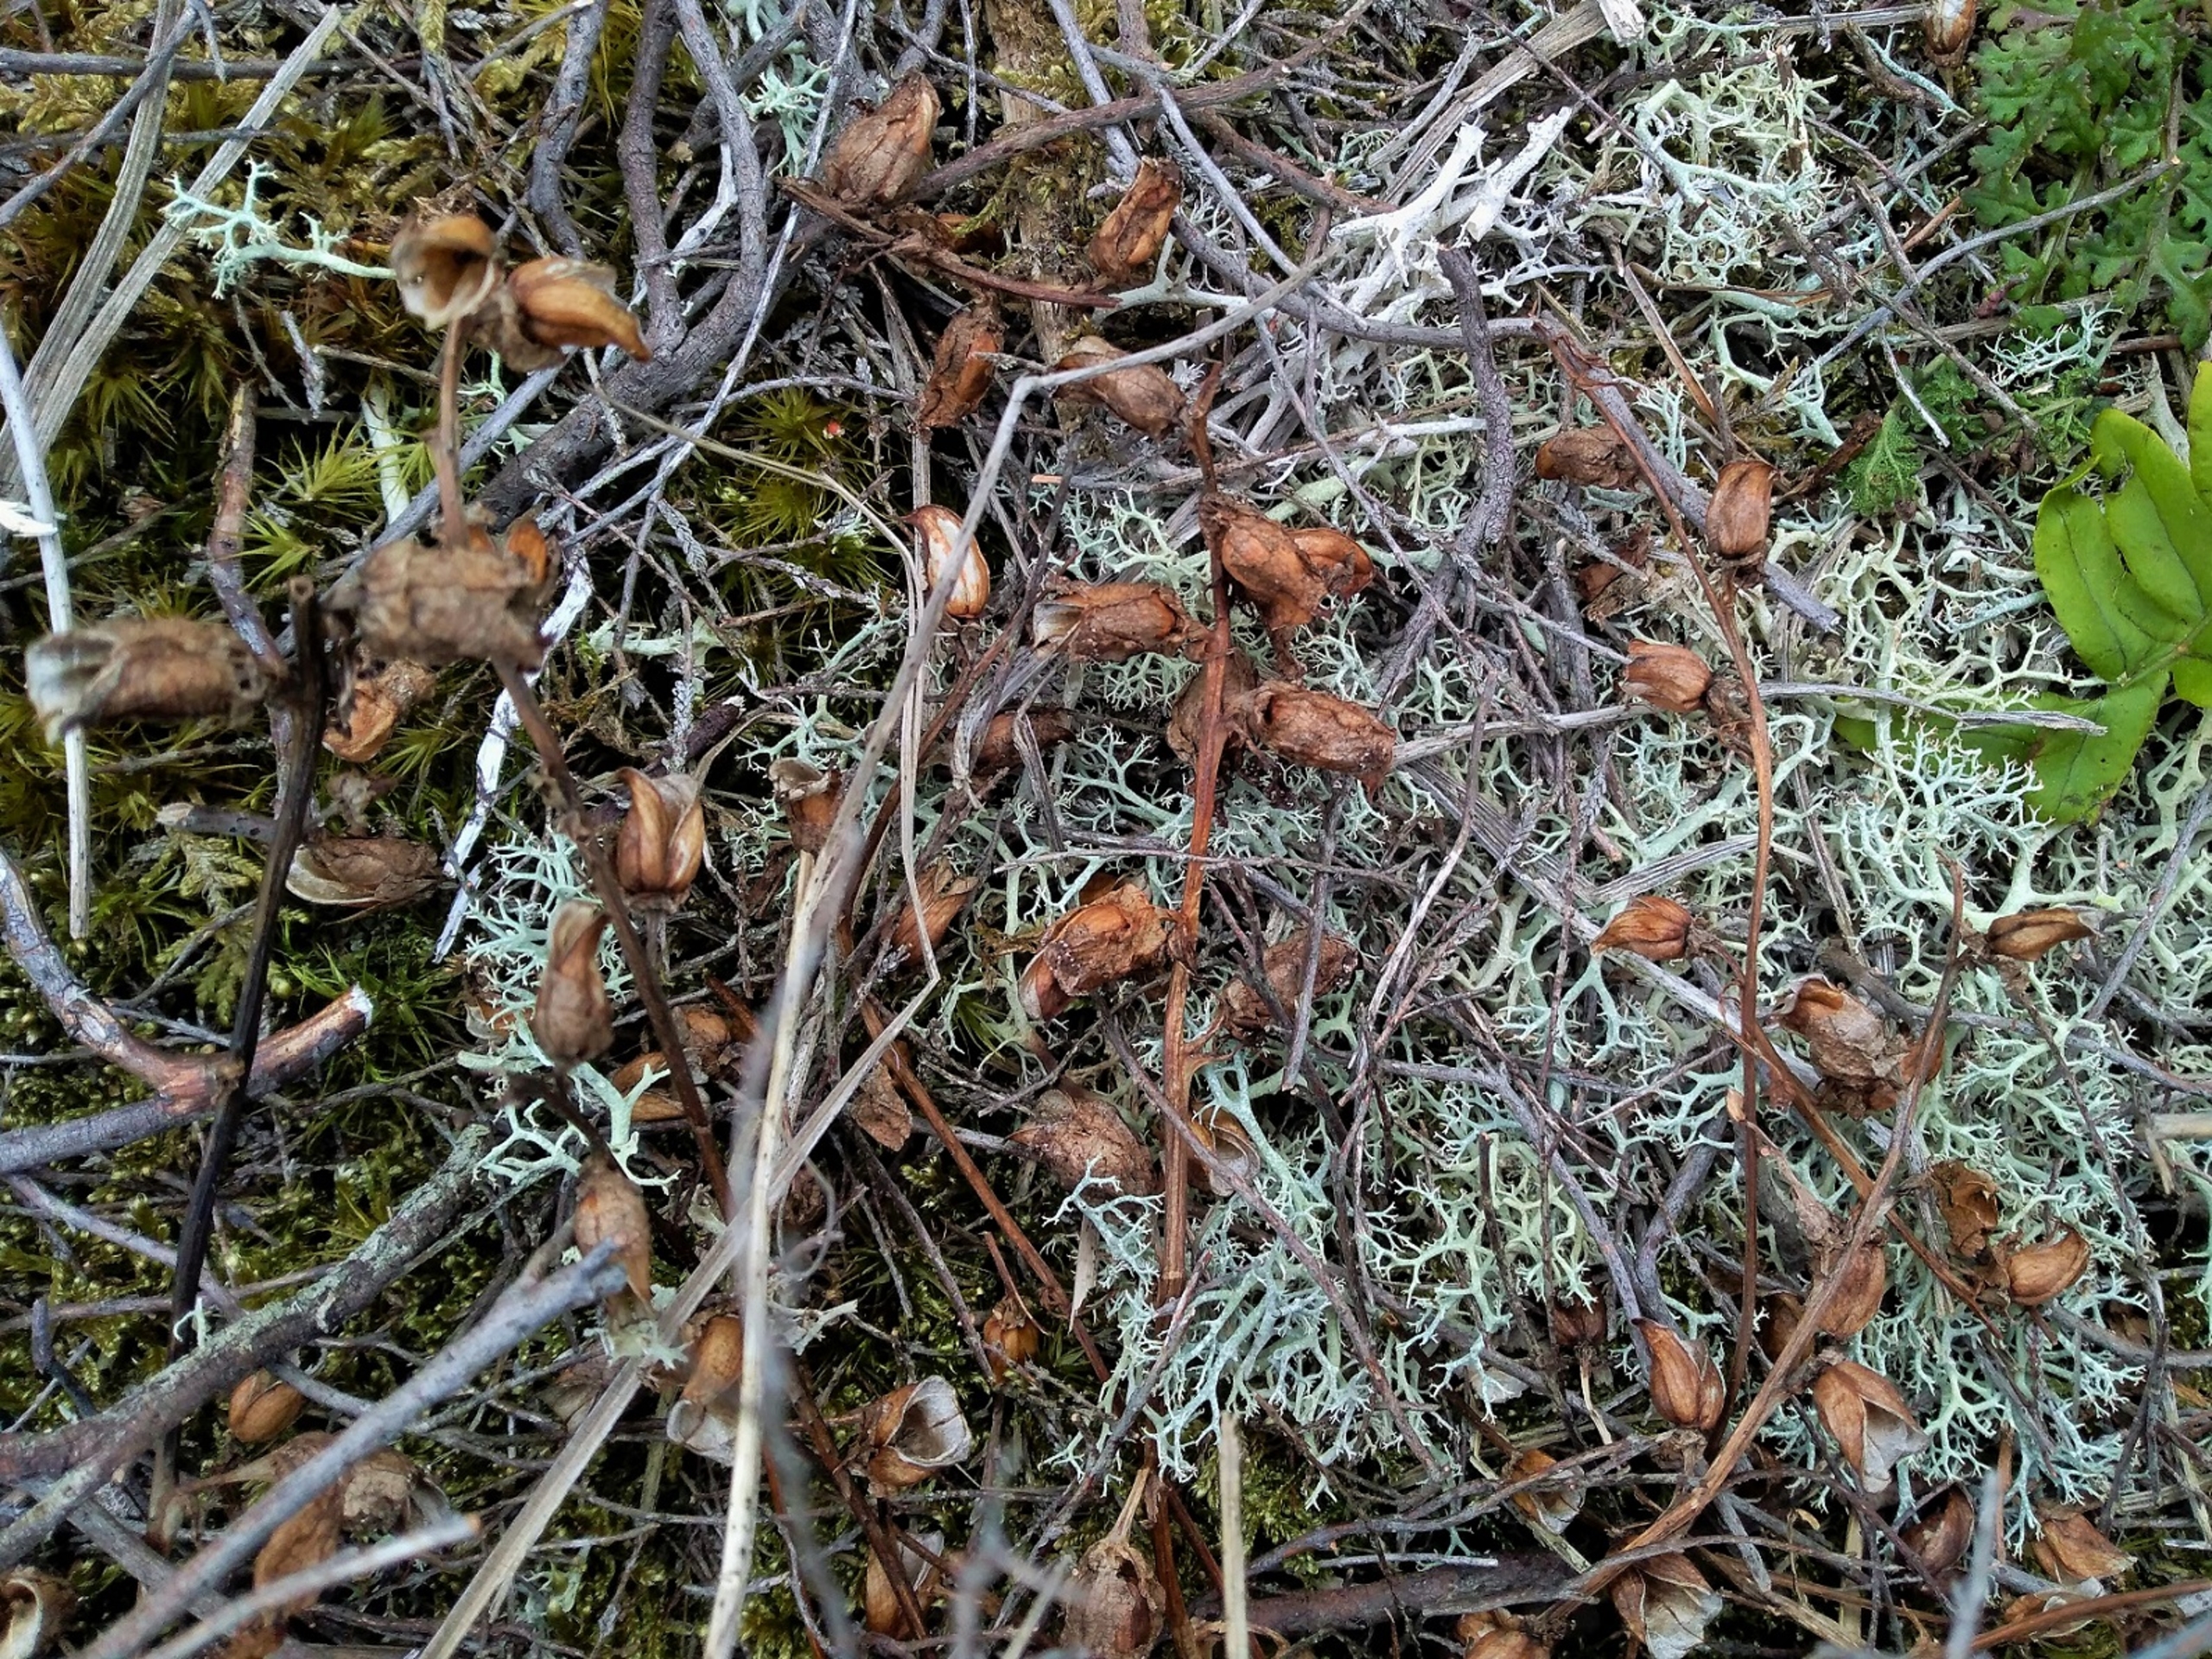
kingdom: Plantae
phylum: Tracheophyta
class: Magnoliopsida
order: Lamiales
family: Orobanchaceae
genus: Pedicularis
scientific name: Pedicularis sylvatica
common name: Mose-troldurt
